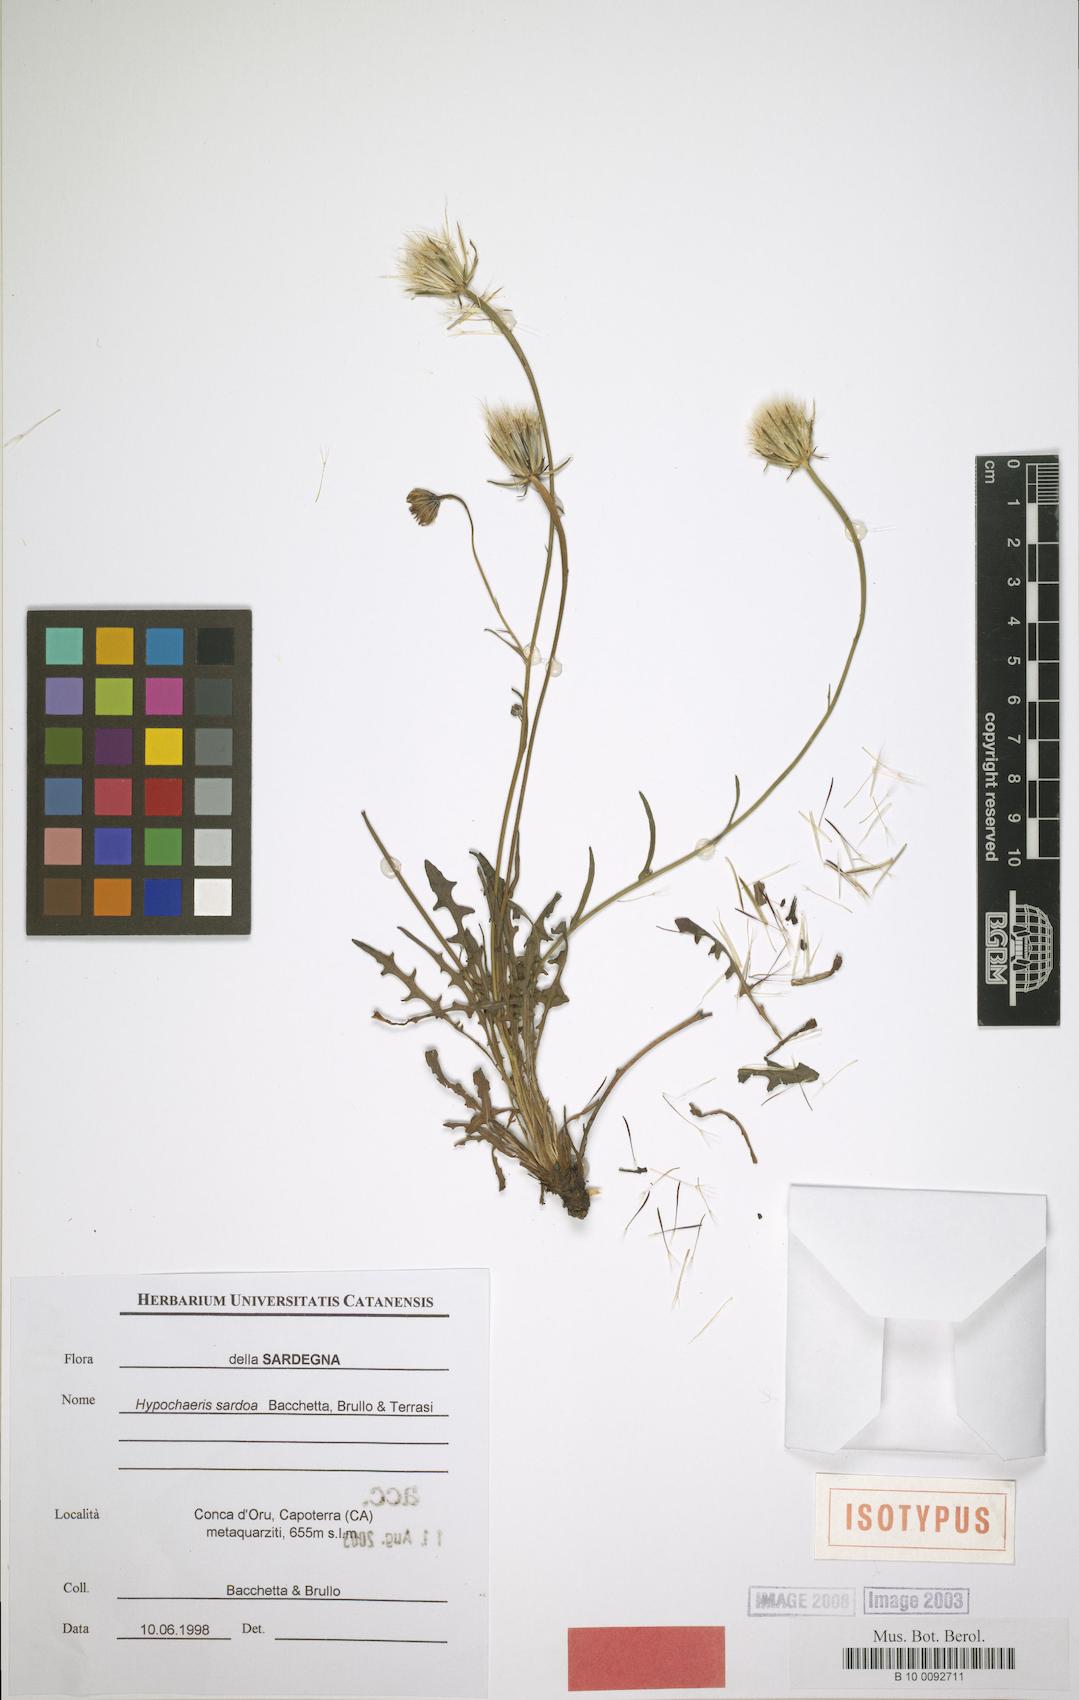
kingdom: Plantae
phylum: Tracheophyta
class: Magnoliopsida
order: Asterales
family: Asteraceae
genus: Hypochaeris
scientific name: Hypochaeris sardoa
